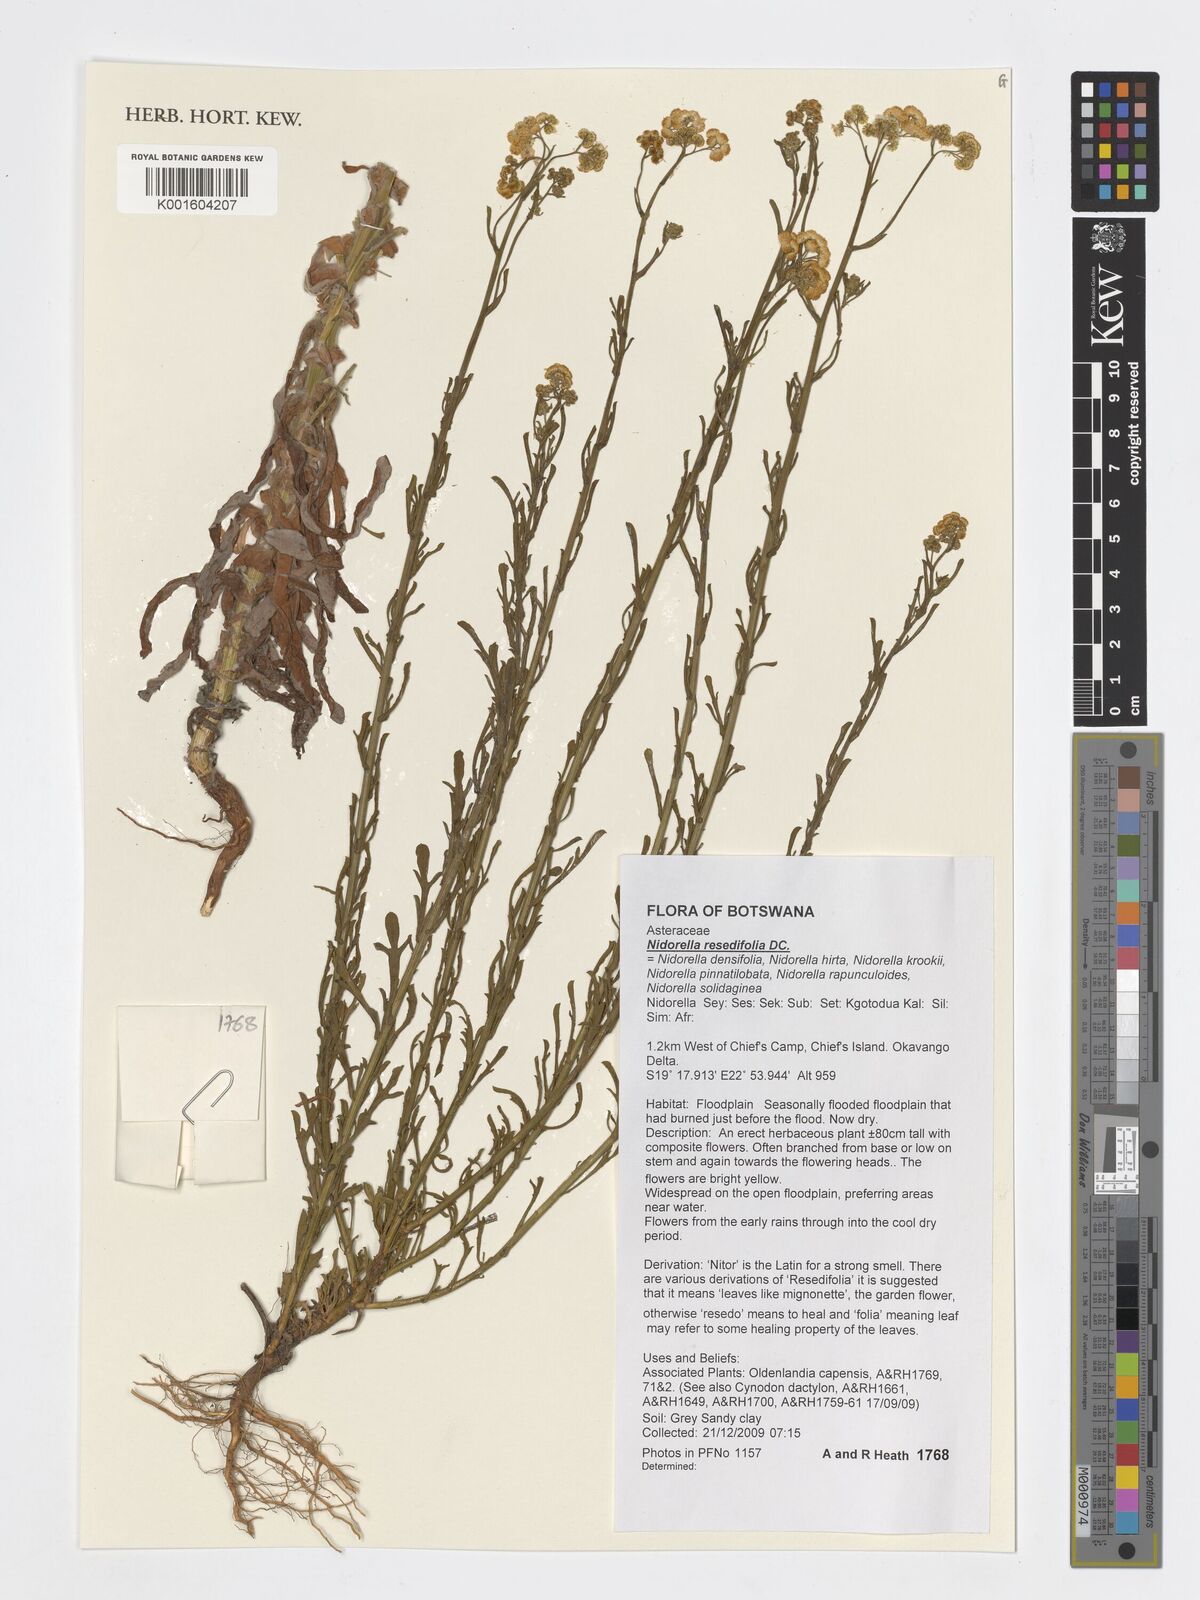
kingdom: Plantae
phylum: Tracheophyta
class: Magnoliopsida
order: Asterales
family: Asteraceae
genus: Nidorella
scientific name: Nidorella resedifolia
